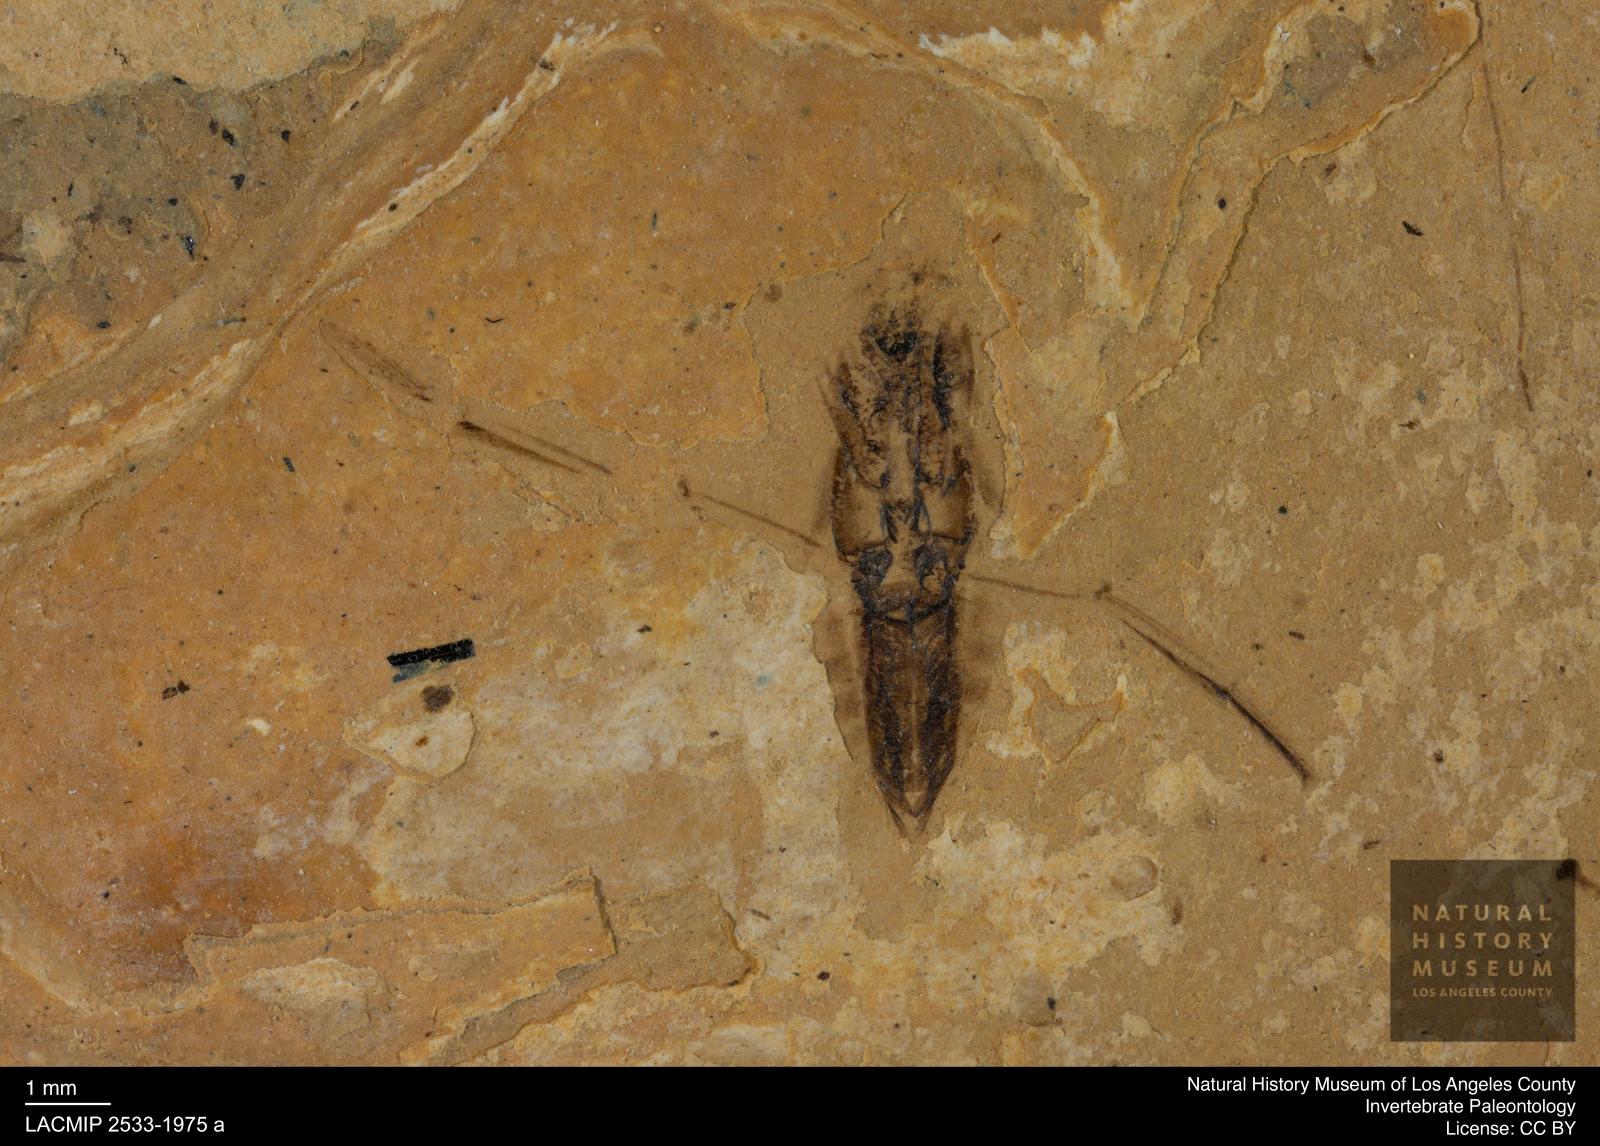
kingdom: Animalia
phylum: Arthropoda
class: Insecta
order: Hemiptera
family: Notonectidae
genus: Anisops
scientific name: Anisops Notonecta deichmuelleri
